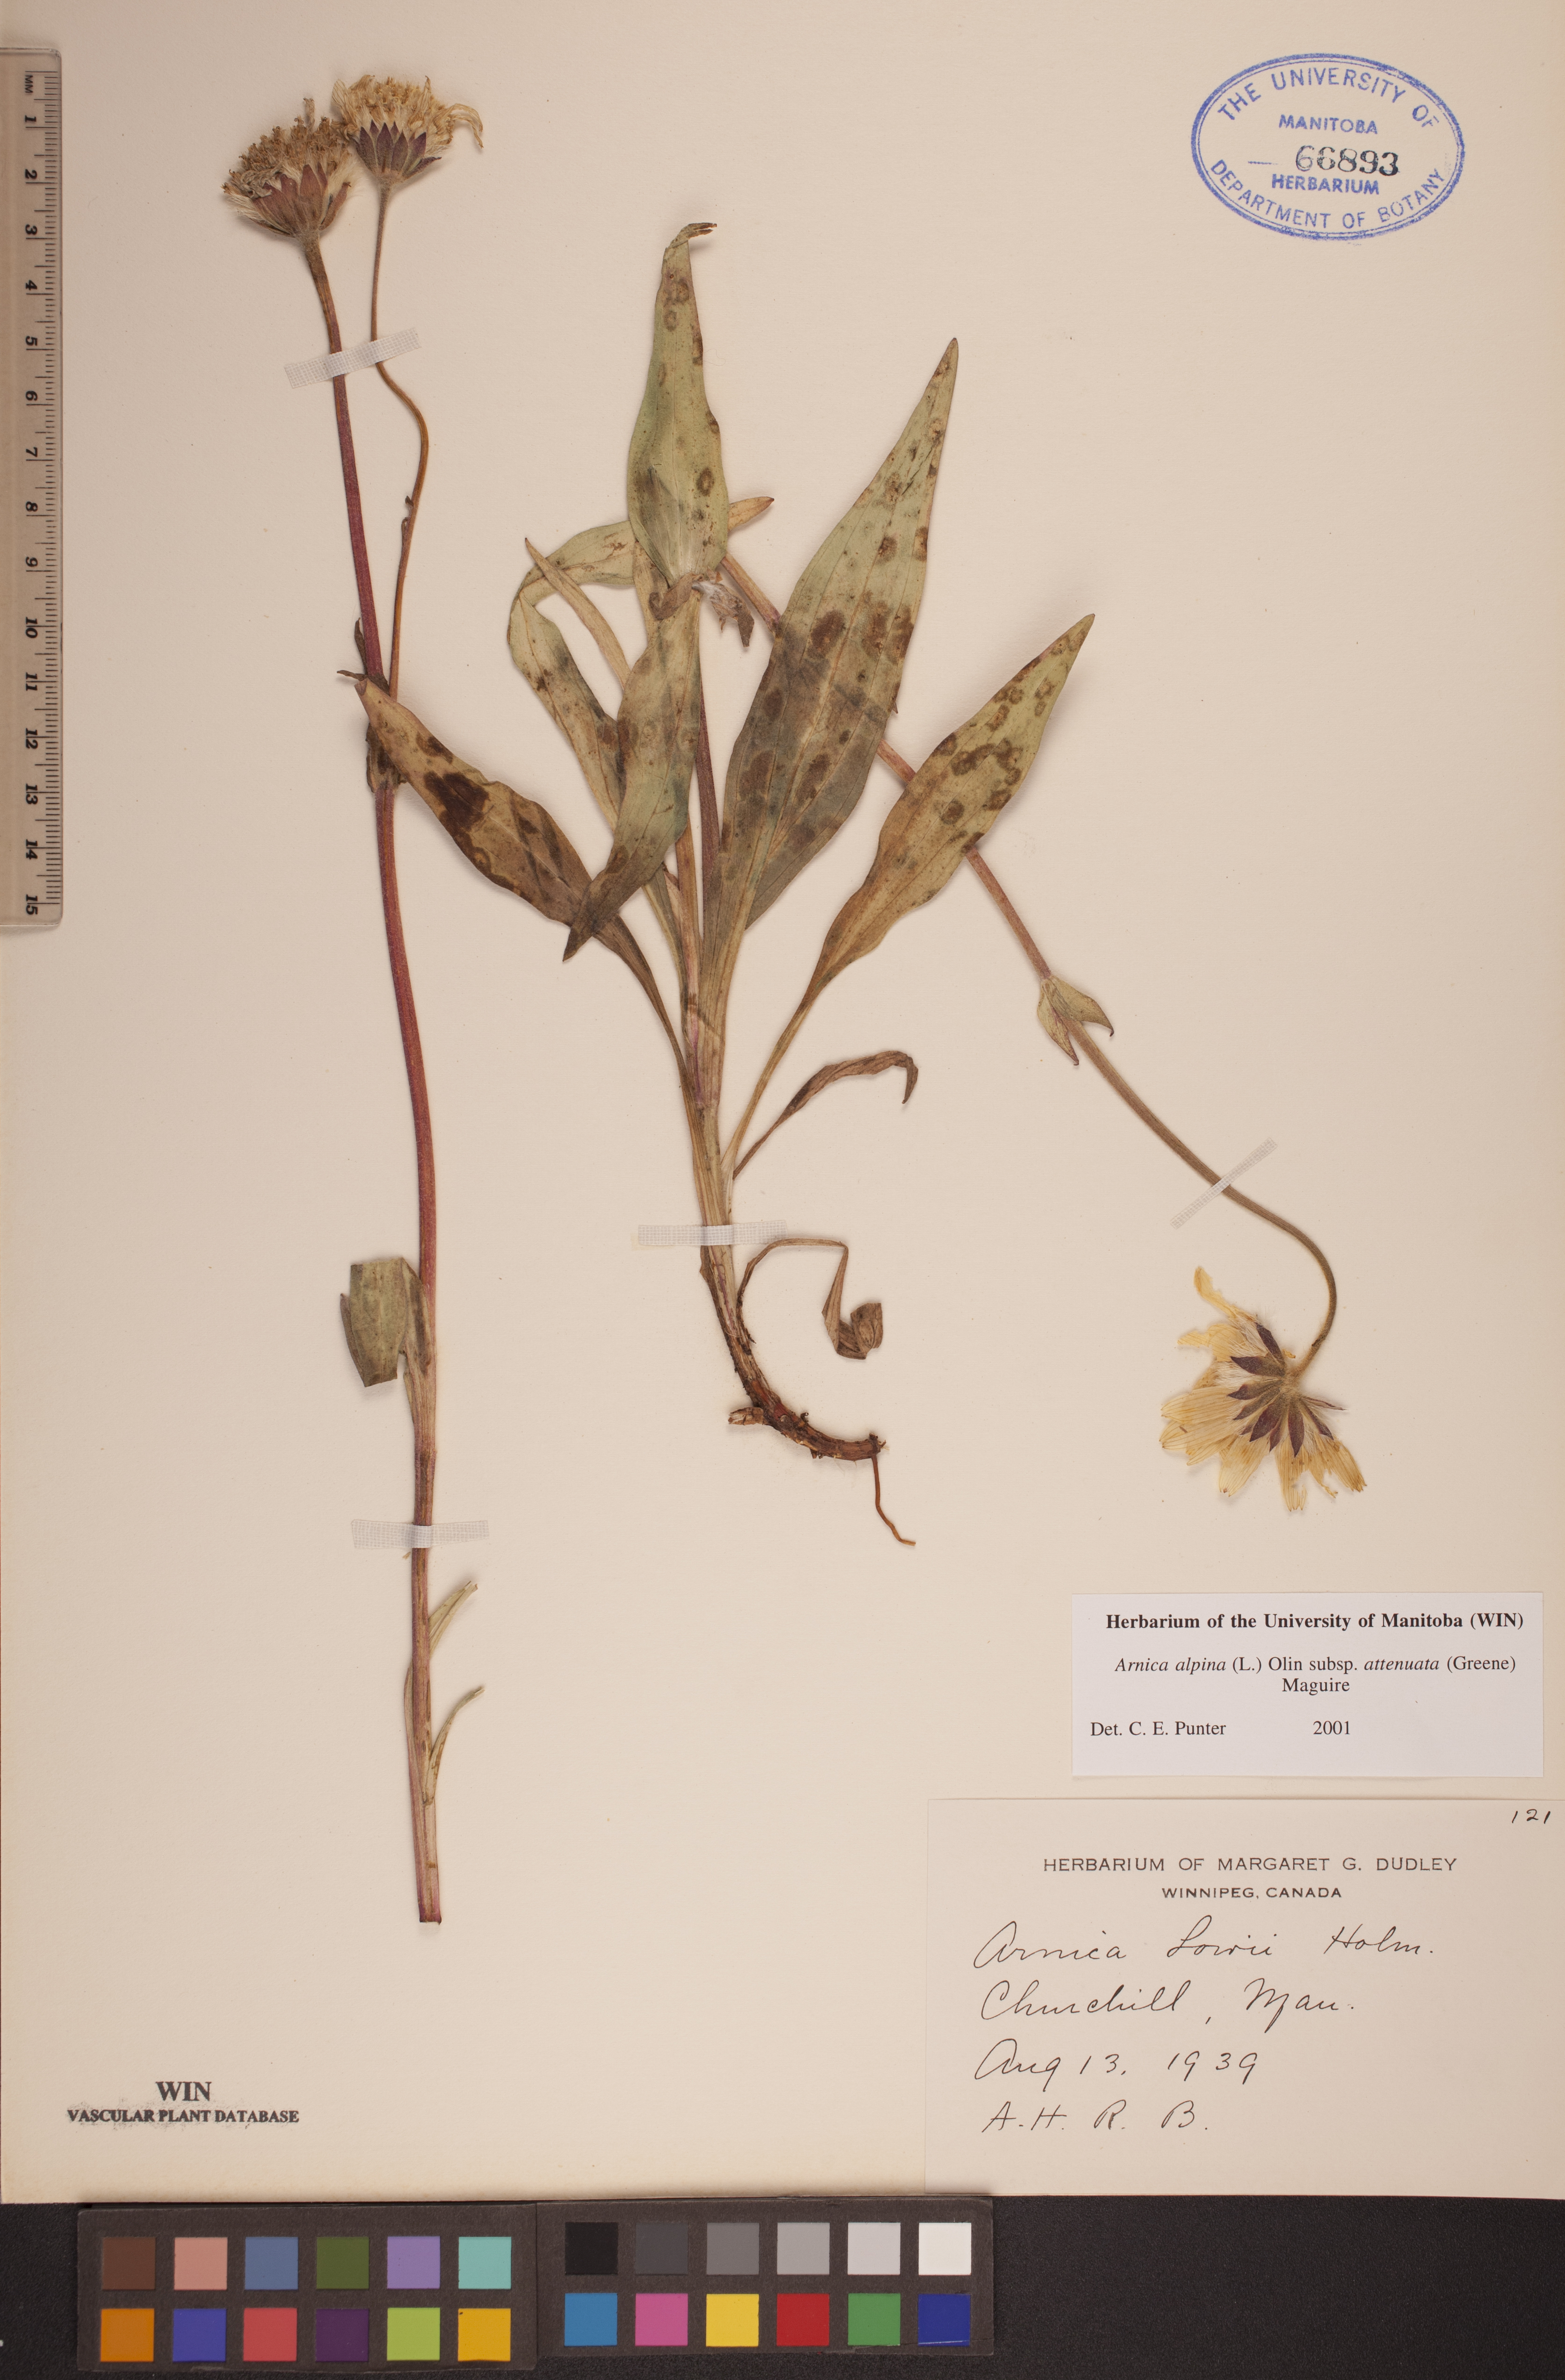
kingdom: Plantae
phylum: Tracheophyta
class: Magnoliopsida
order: Asterales
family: Asteraceae
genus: Arnica
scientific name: Arnica angustifolia
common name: Arctic arnica
